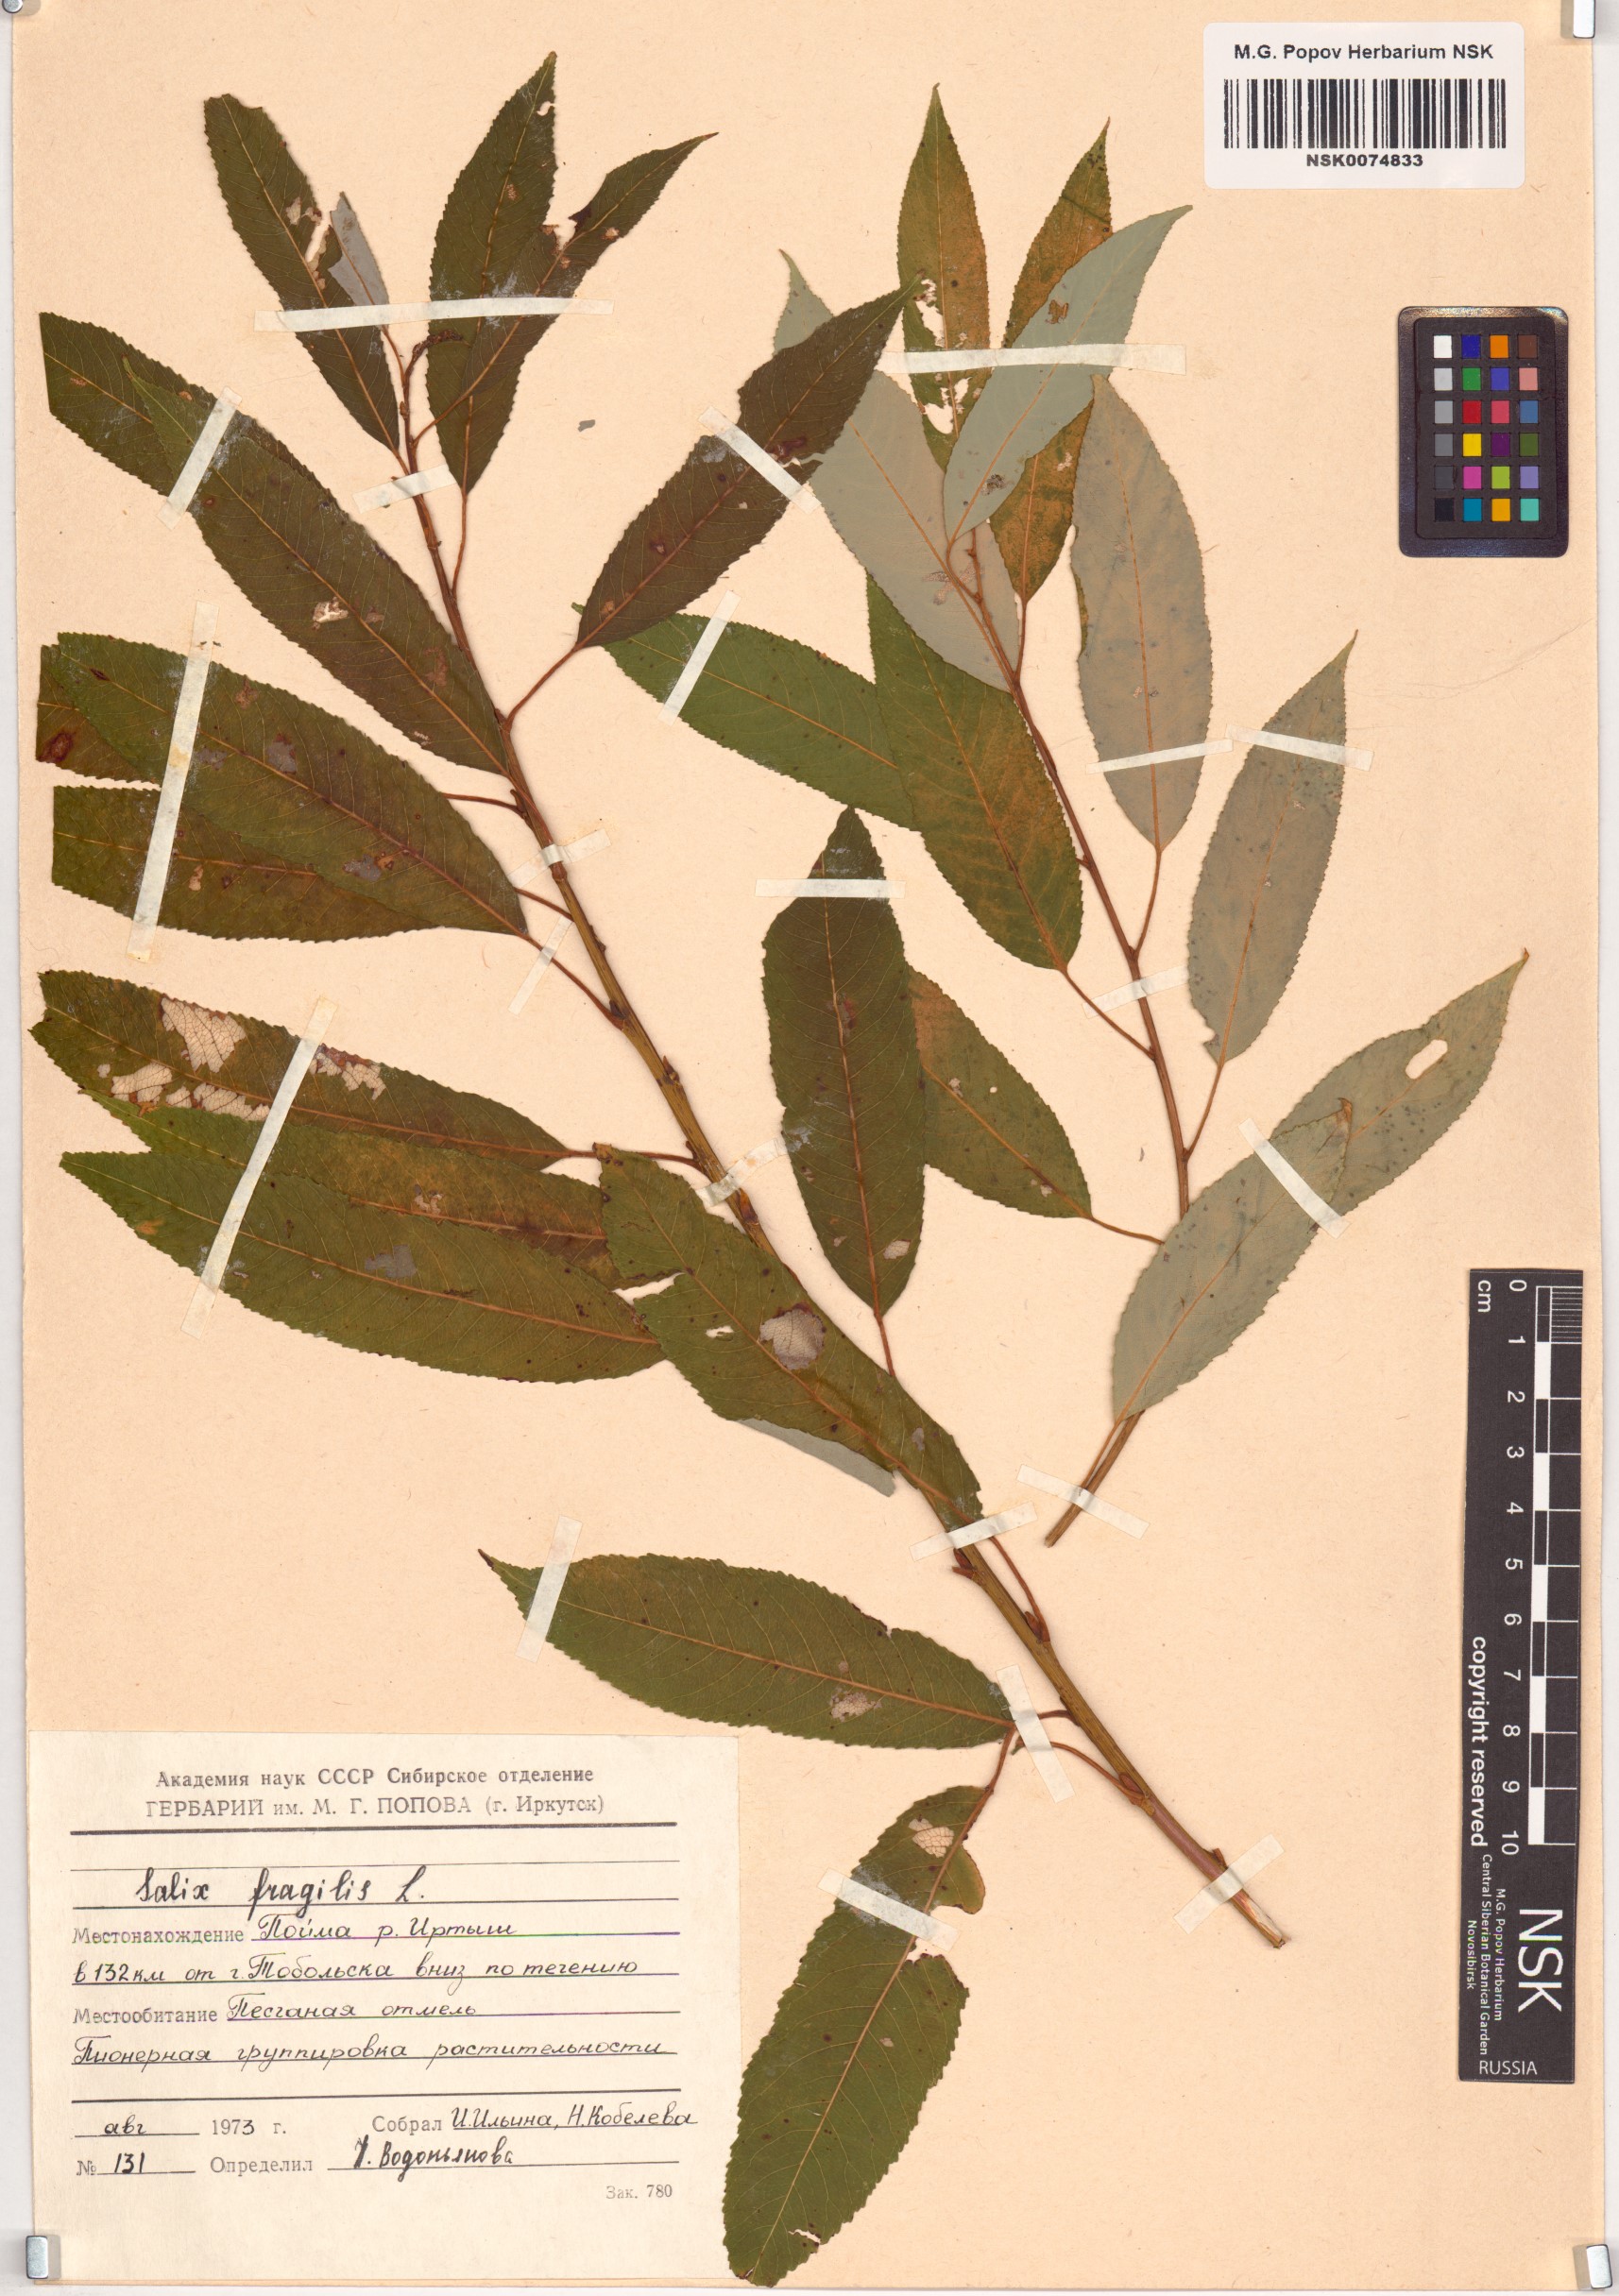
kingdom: Plantae
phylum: Tracheophyta
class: Magnoliopsida
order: Malpighiales
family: Salicaceae
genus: Salix
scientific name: Salix fragilis
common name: Crack willow
